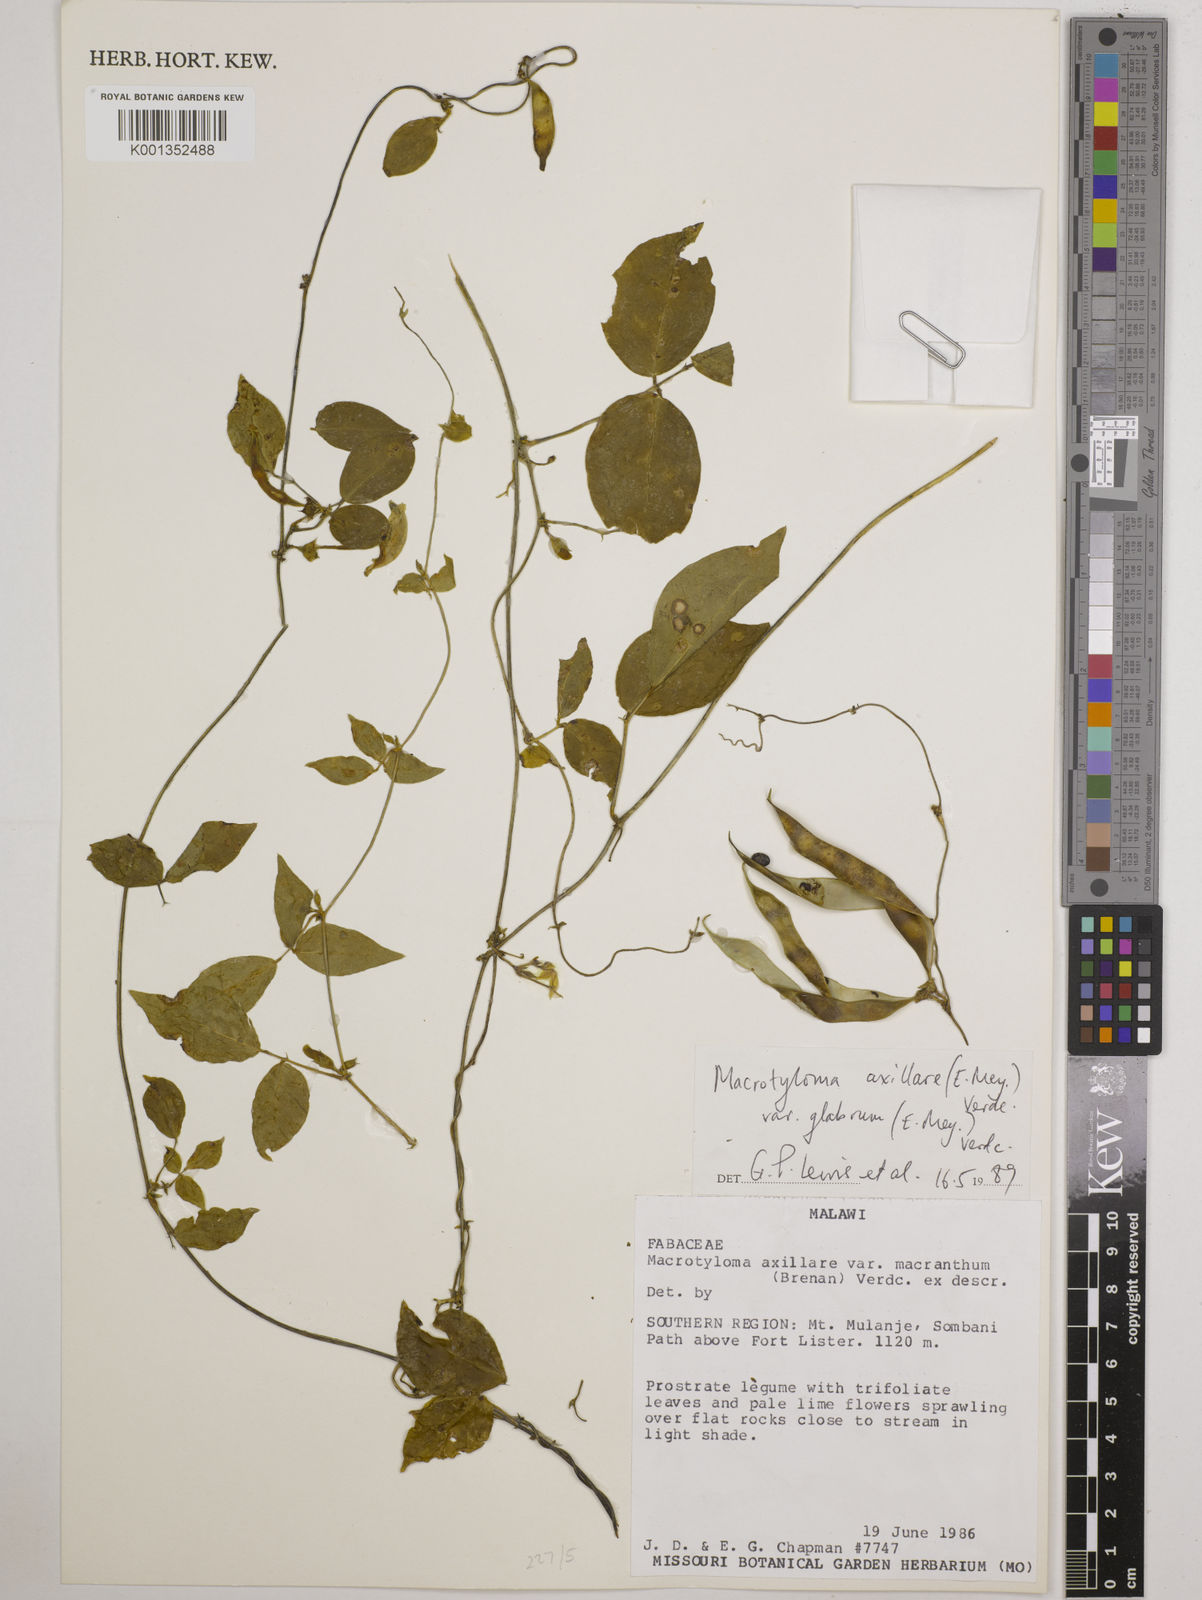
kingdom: Plantae
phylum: Tracheophyta
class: Magnoliopsida
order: Fabales
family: Fabaceae
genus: Macrotyloma
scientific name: Macrotyloma
